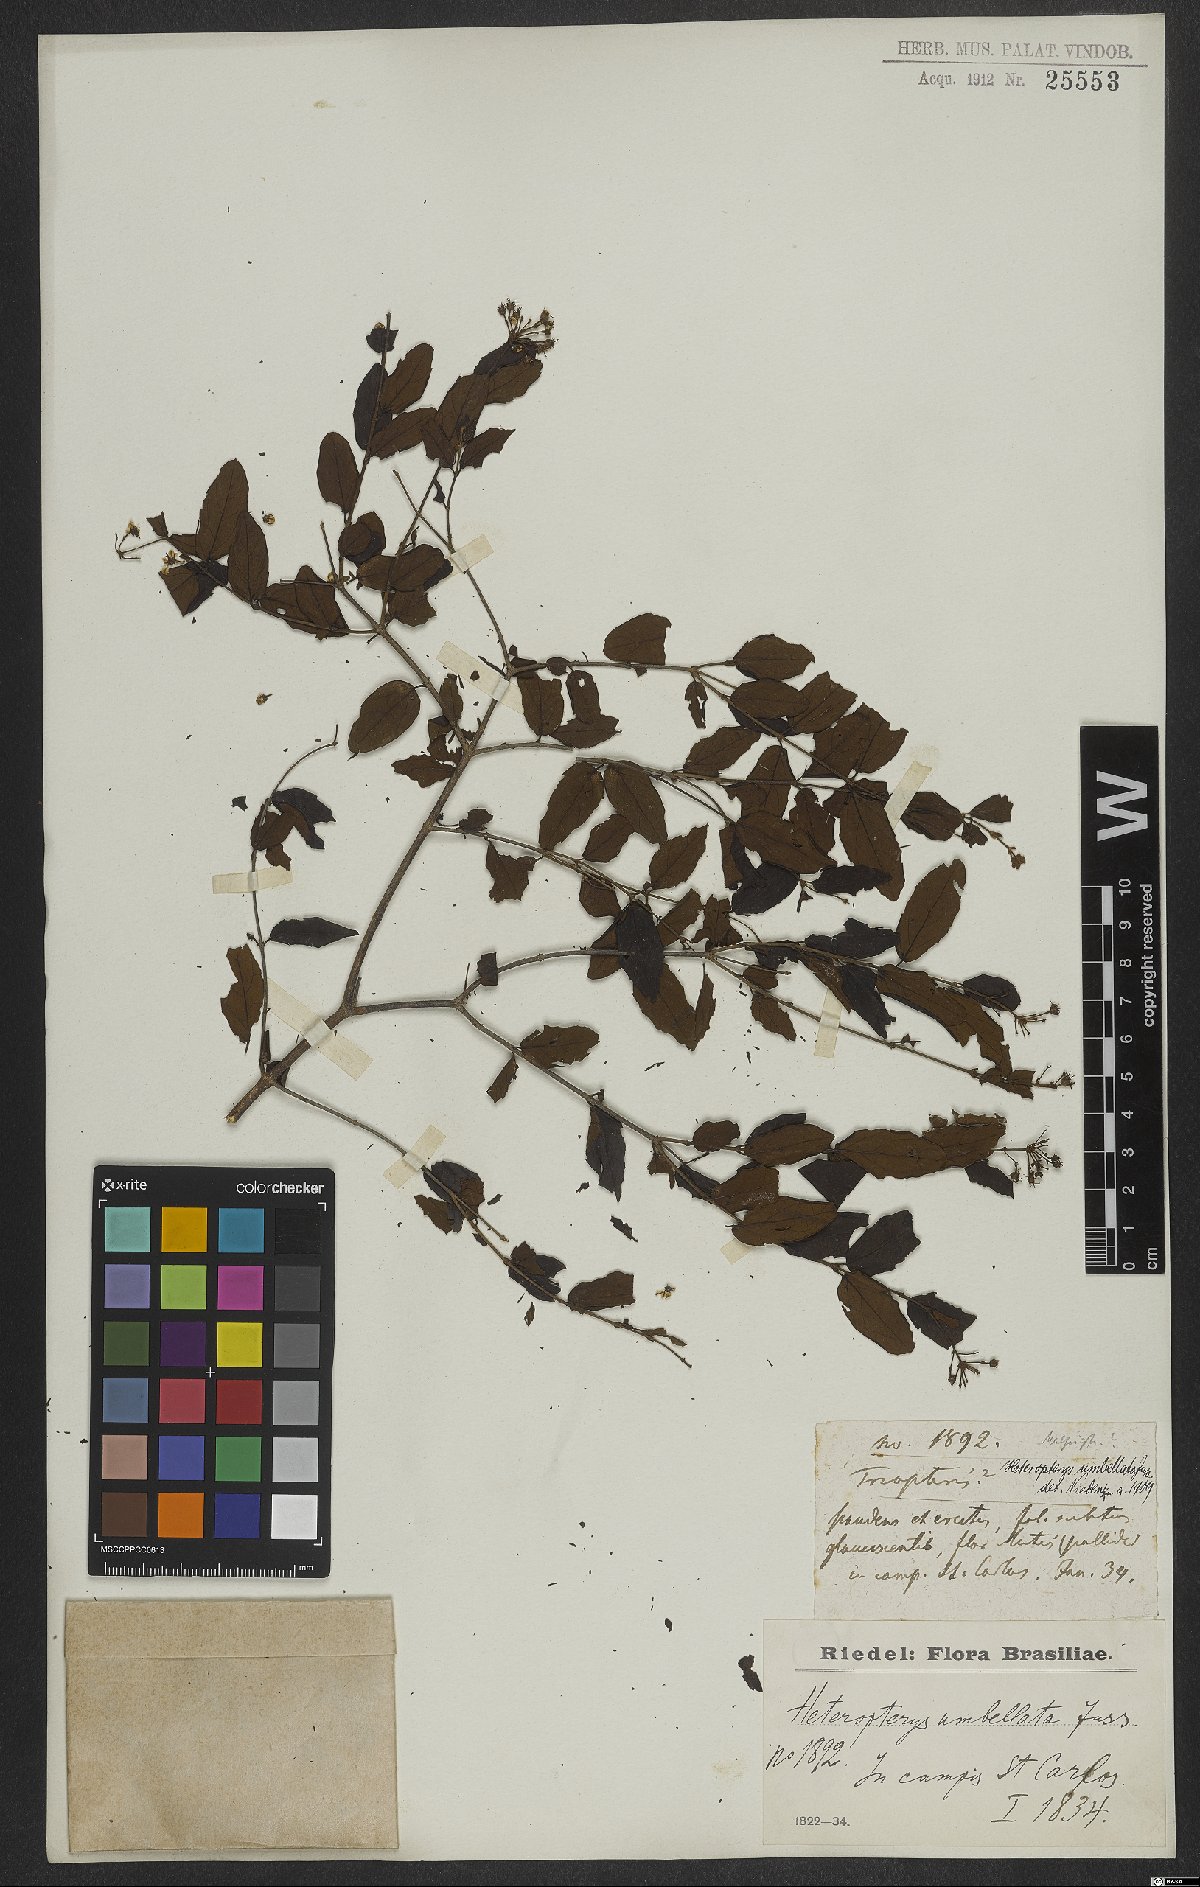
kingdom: Plantae
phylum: Tracheophyta
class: Magnoliopsida
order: Malpighiales
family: Malpighiaceae
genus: Heteropterys
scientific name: Heteropterys umbellata
